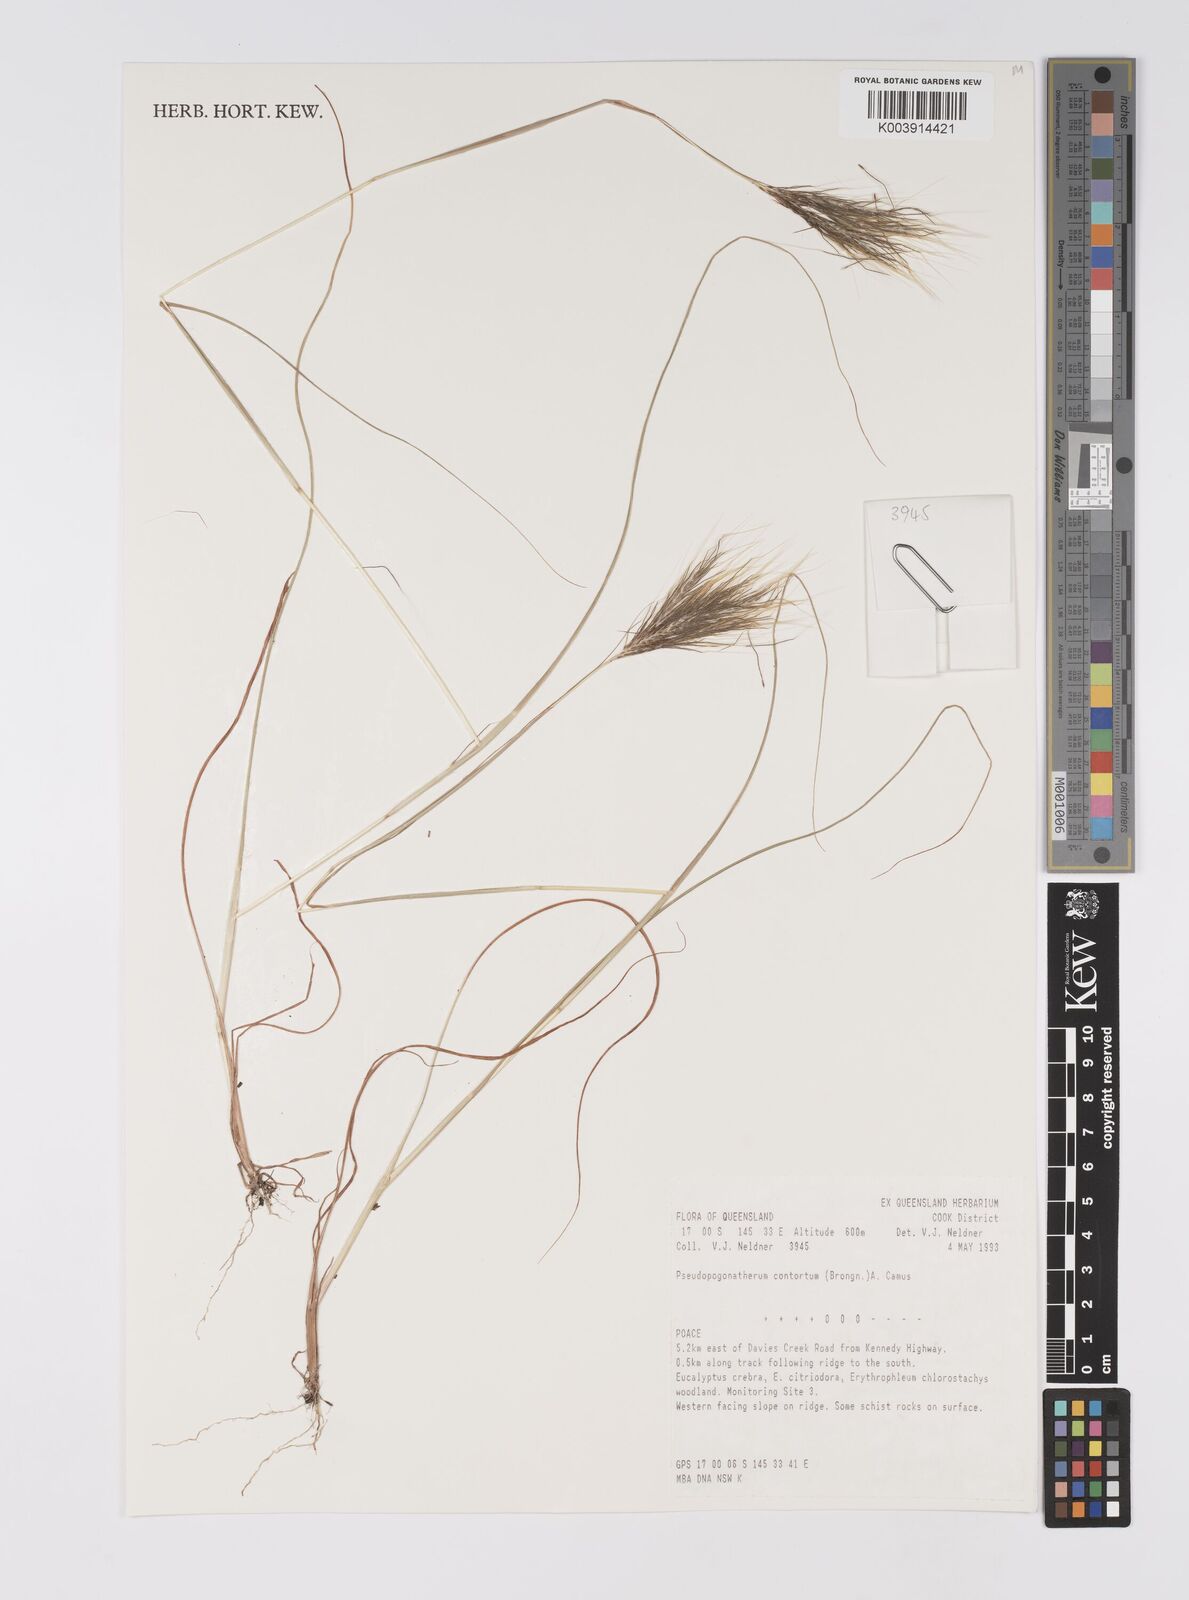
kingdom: Plantae
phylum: Tracheophyta
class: Liliopsida
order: Poales
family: Poaceae
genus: Pseudopogonatherum
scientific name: Pseudopogonatherum contortum
